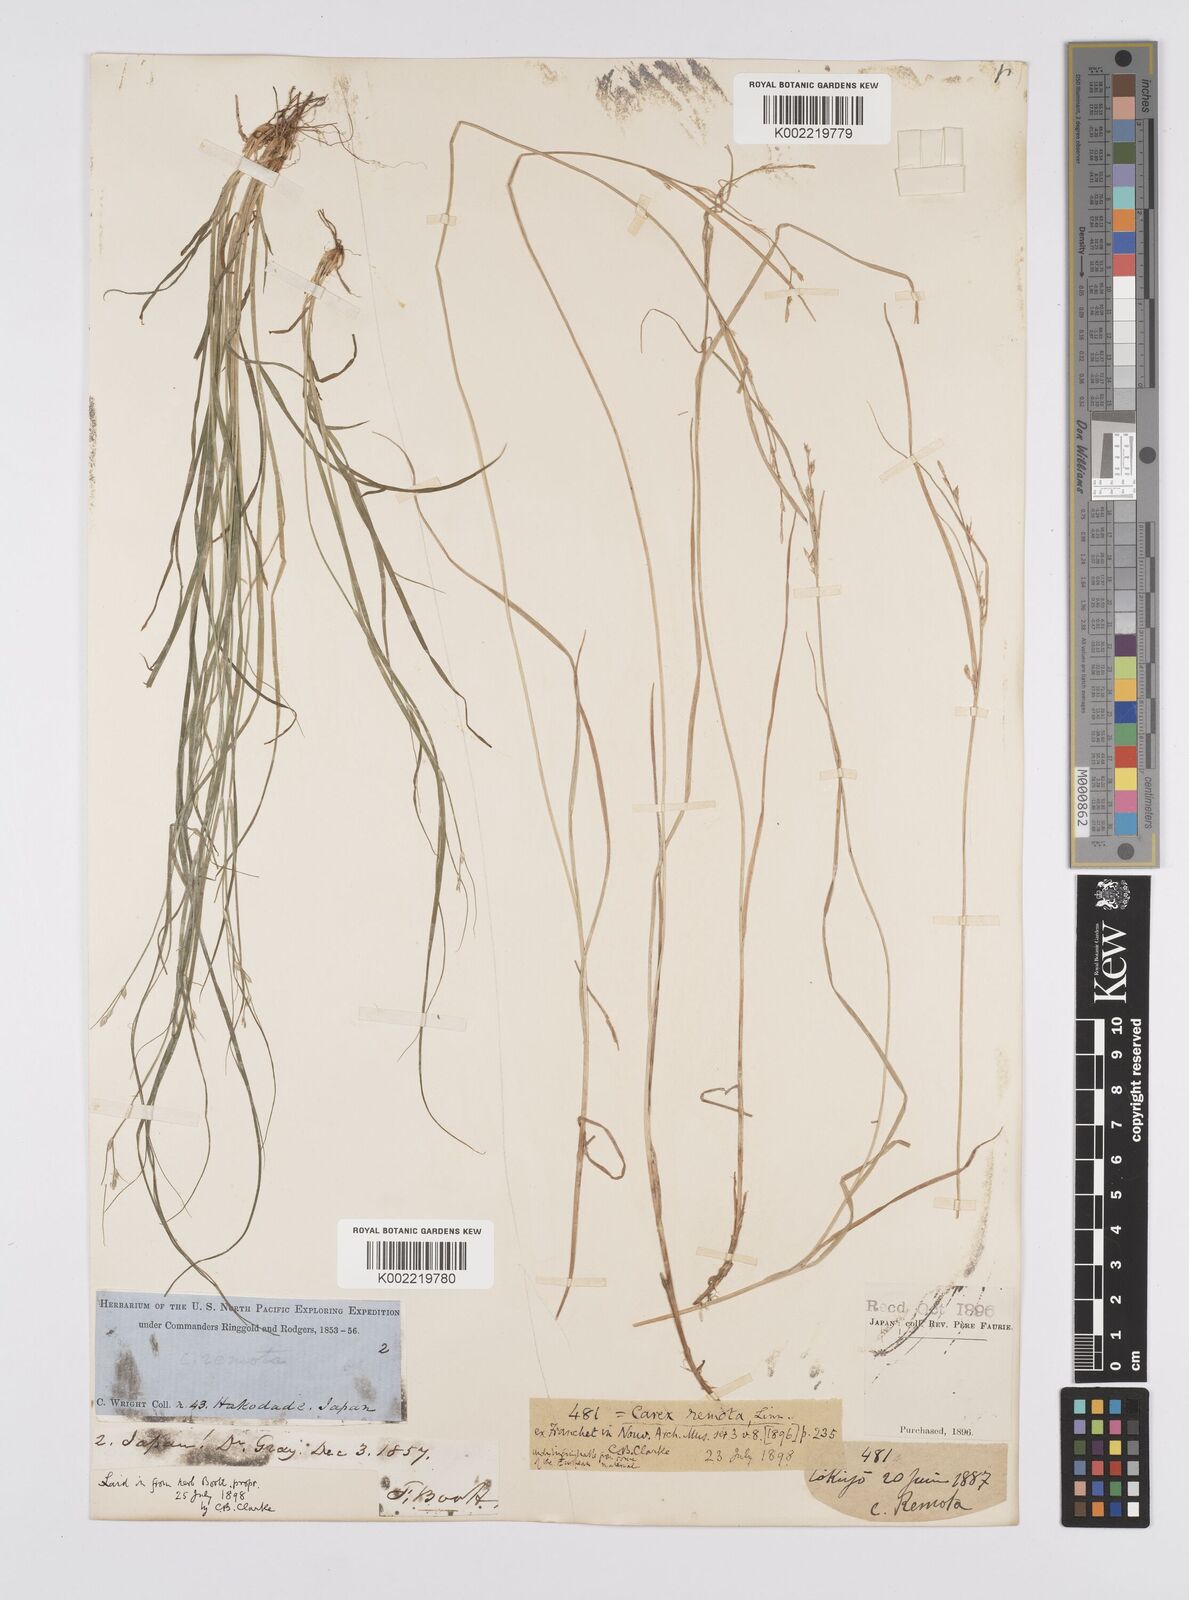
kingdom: Plantae
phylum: Tracheophyta
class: Liliopsida
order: Poales
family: Cyperaceae
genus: Carex
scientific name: Carex remota
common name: Remote sedge
